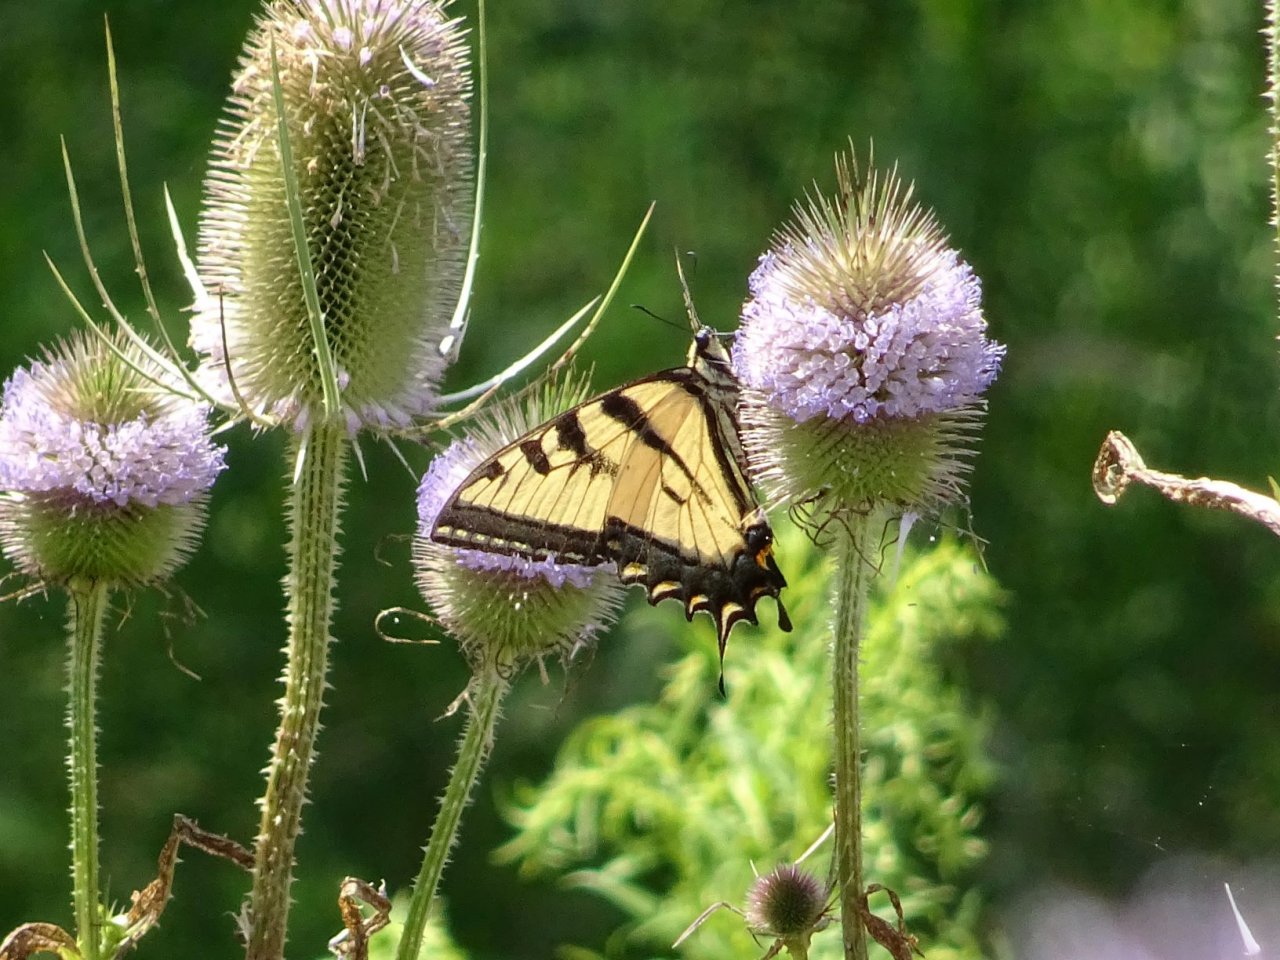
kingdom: Animalia
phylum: Arthropoda
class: Insecta
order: Lepidoptera
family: Papilionidae
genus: Papilio
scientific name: Papilio
